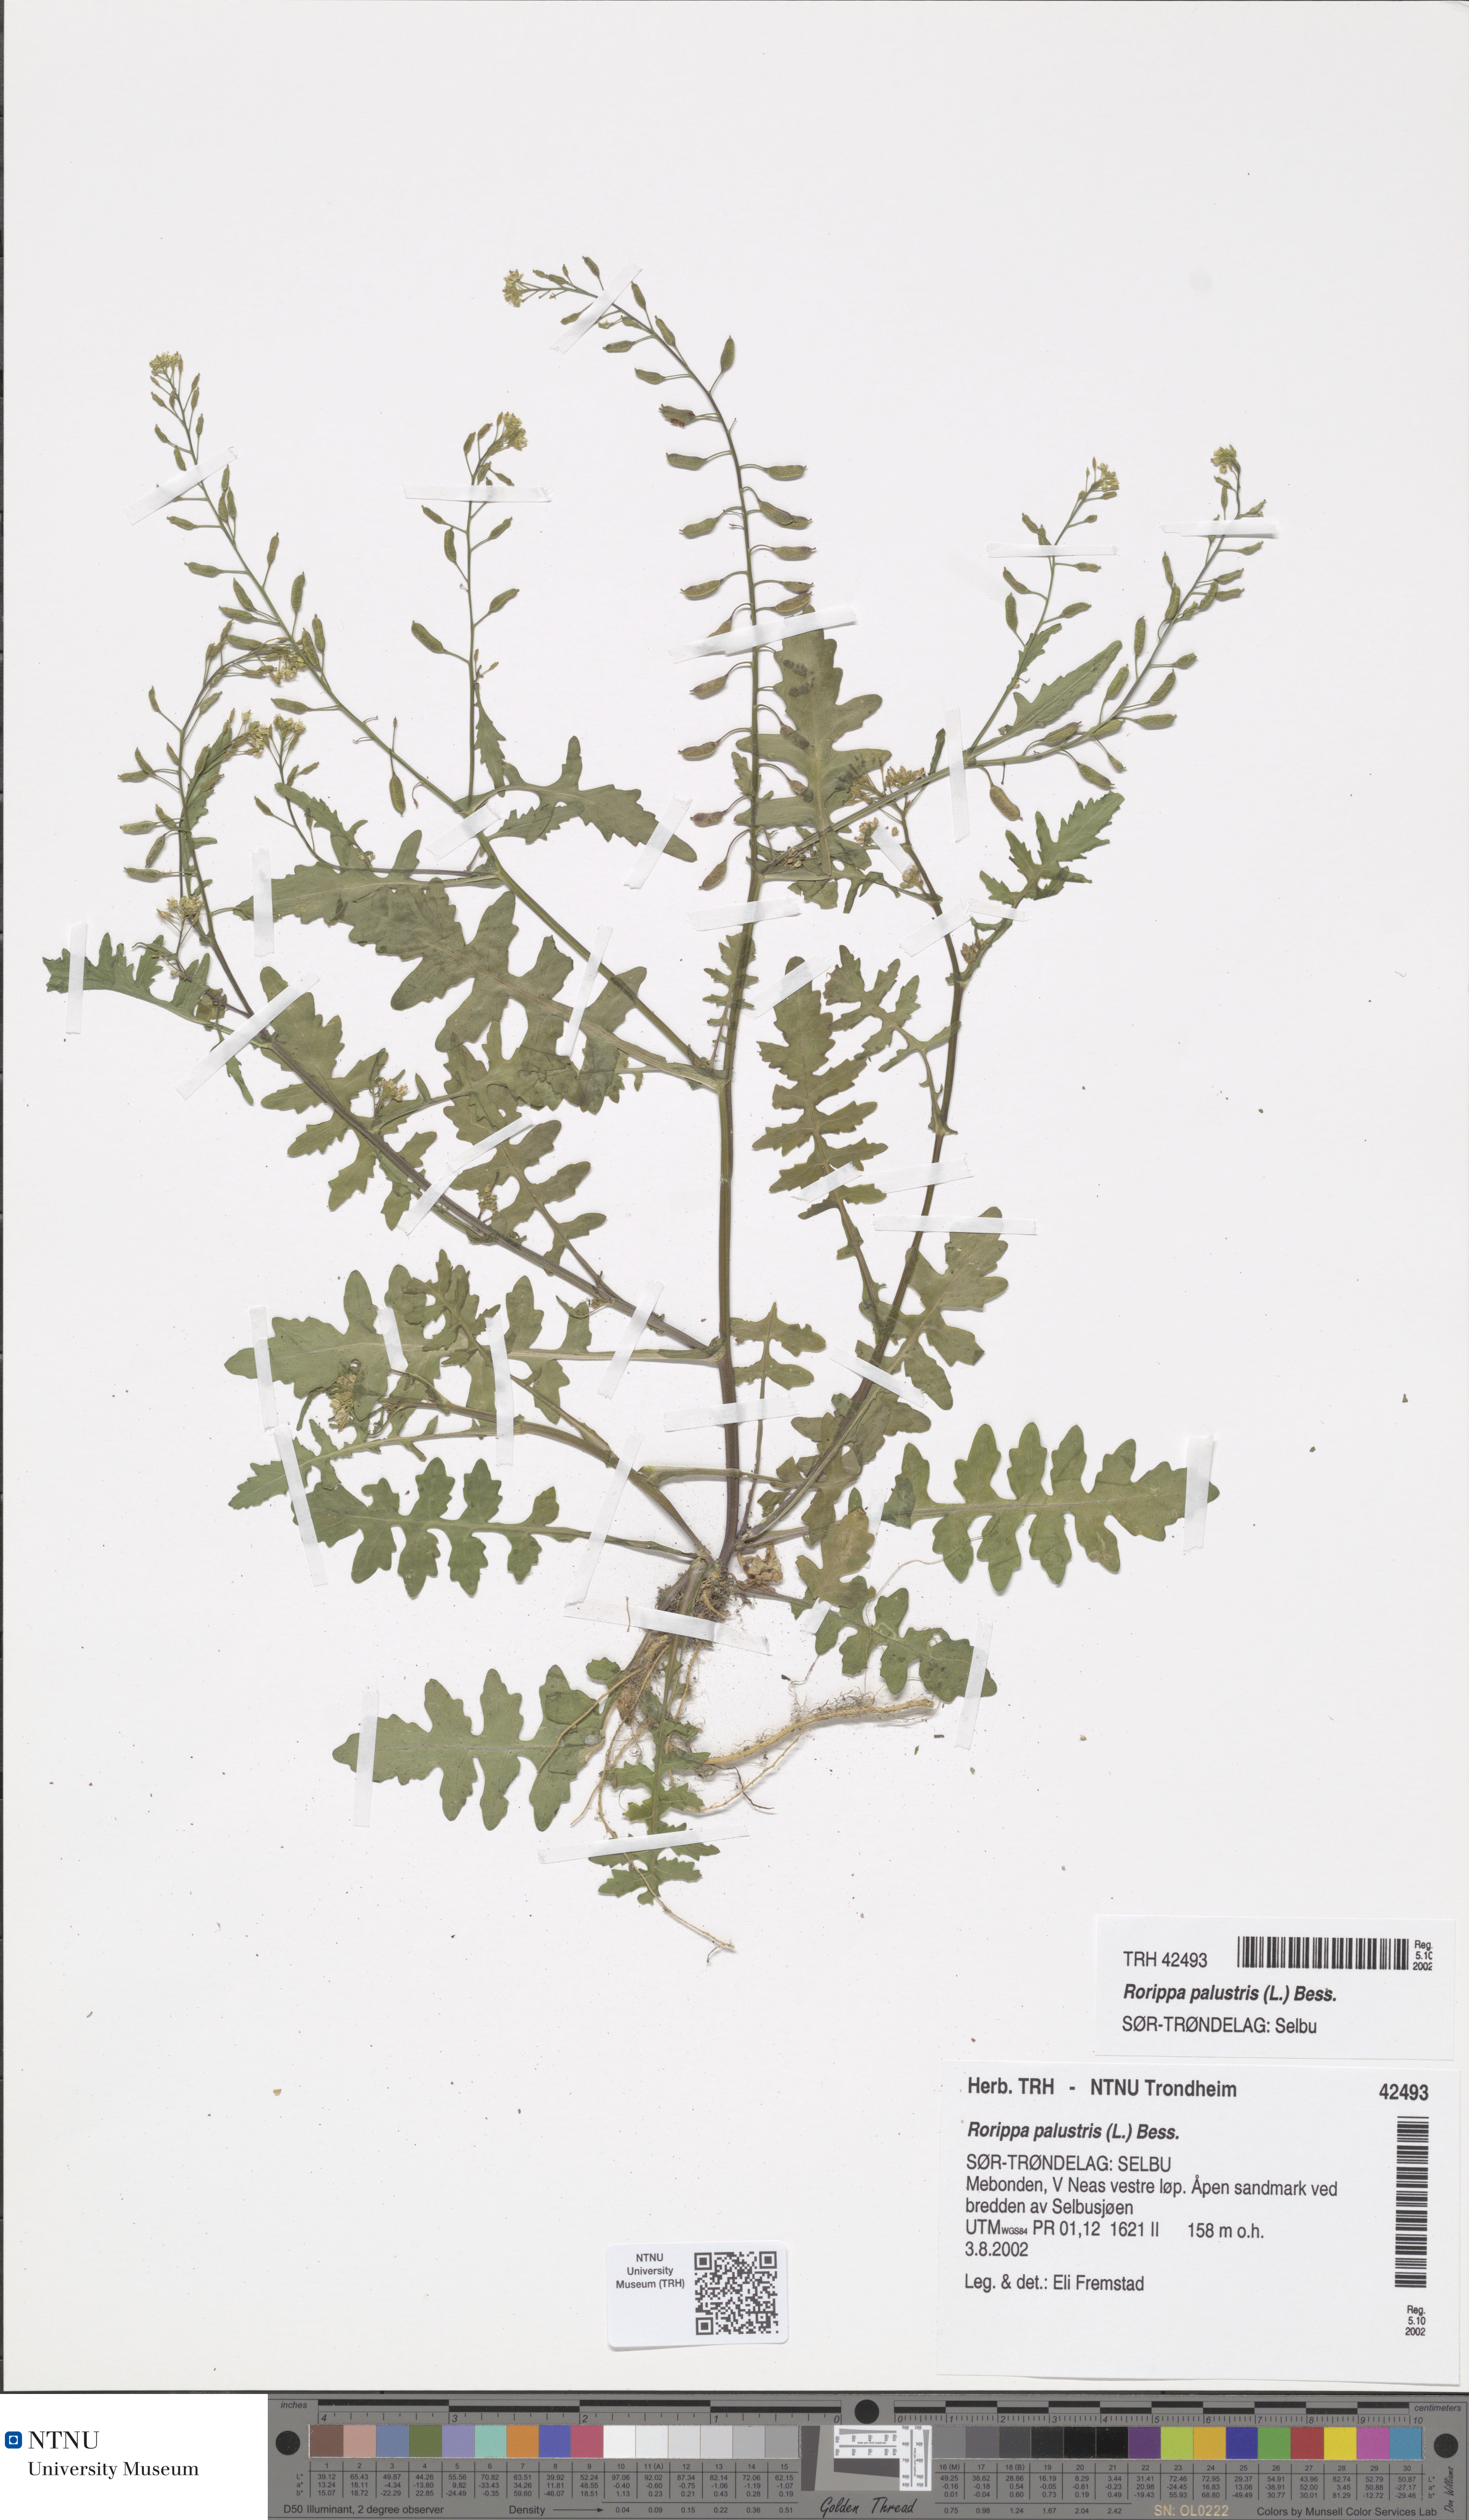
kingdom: Plantae
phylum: Tracheophyta
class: Magnoliopsida
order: Brassicales
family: Brassicaceae
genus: Rorippa
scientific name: Rorippa palustris
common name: Marsh yellow-cress
